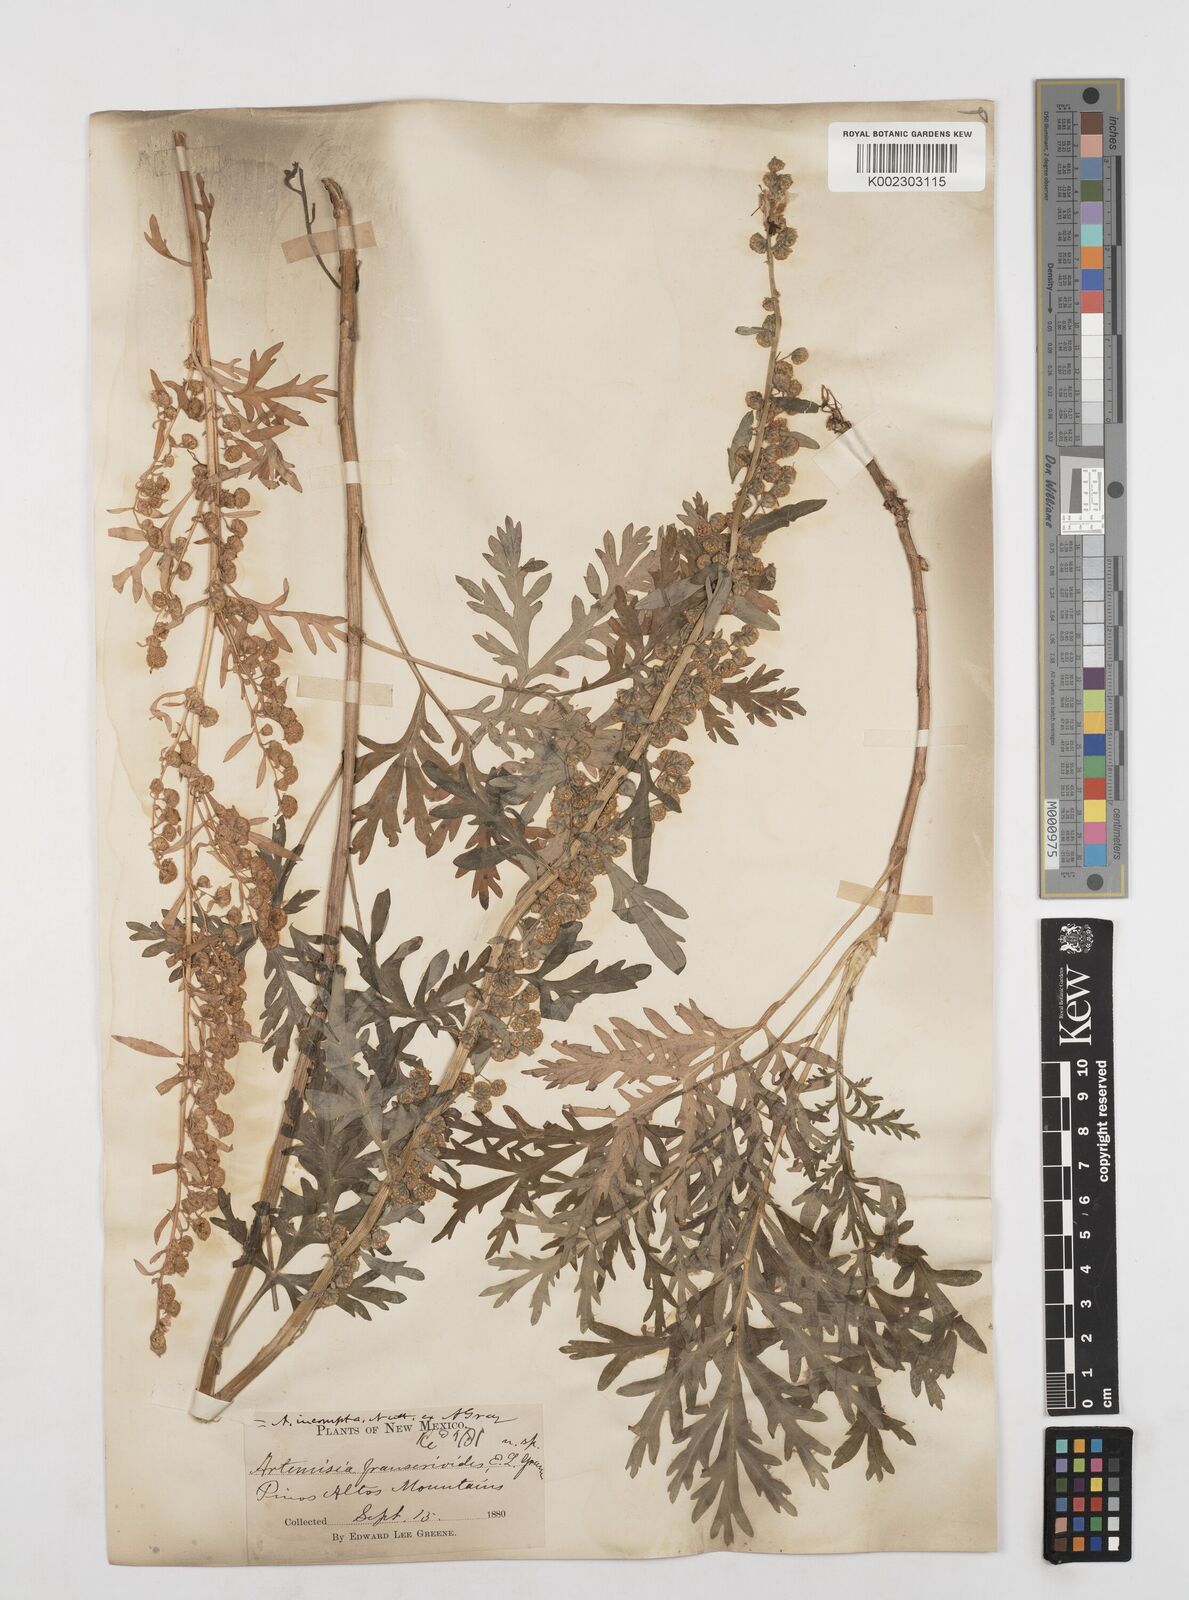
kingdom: Plantae
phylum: Tracheophyta
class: Magnoliopsida
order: Asterales
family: Asteraceae
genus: Artemisia
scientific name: Artemisia franserioides
